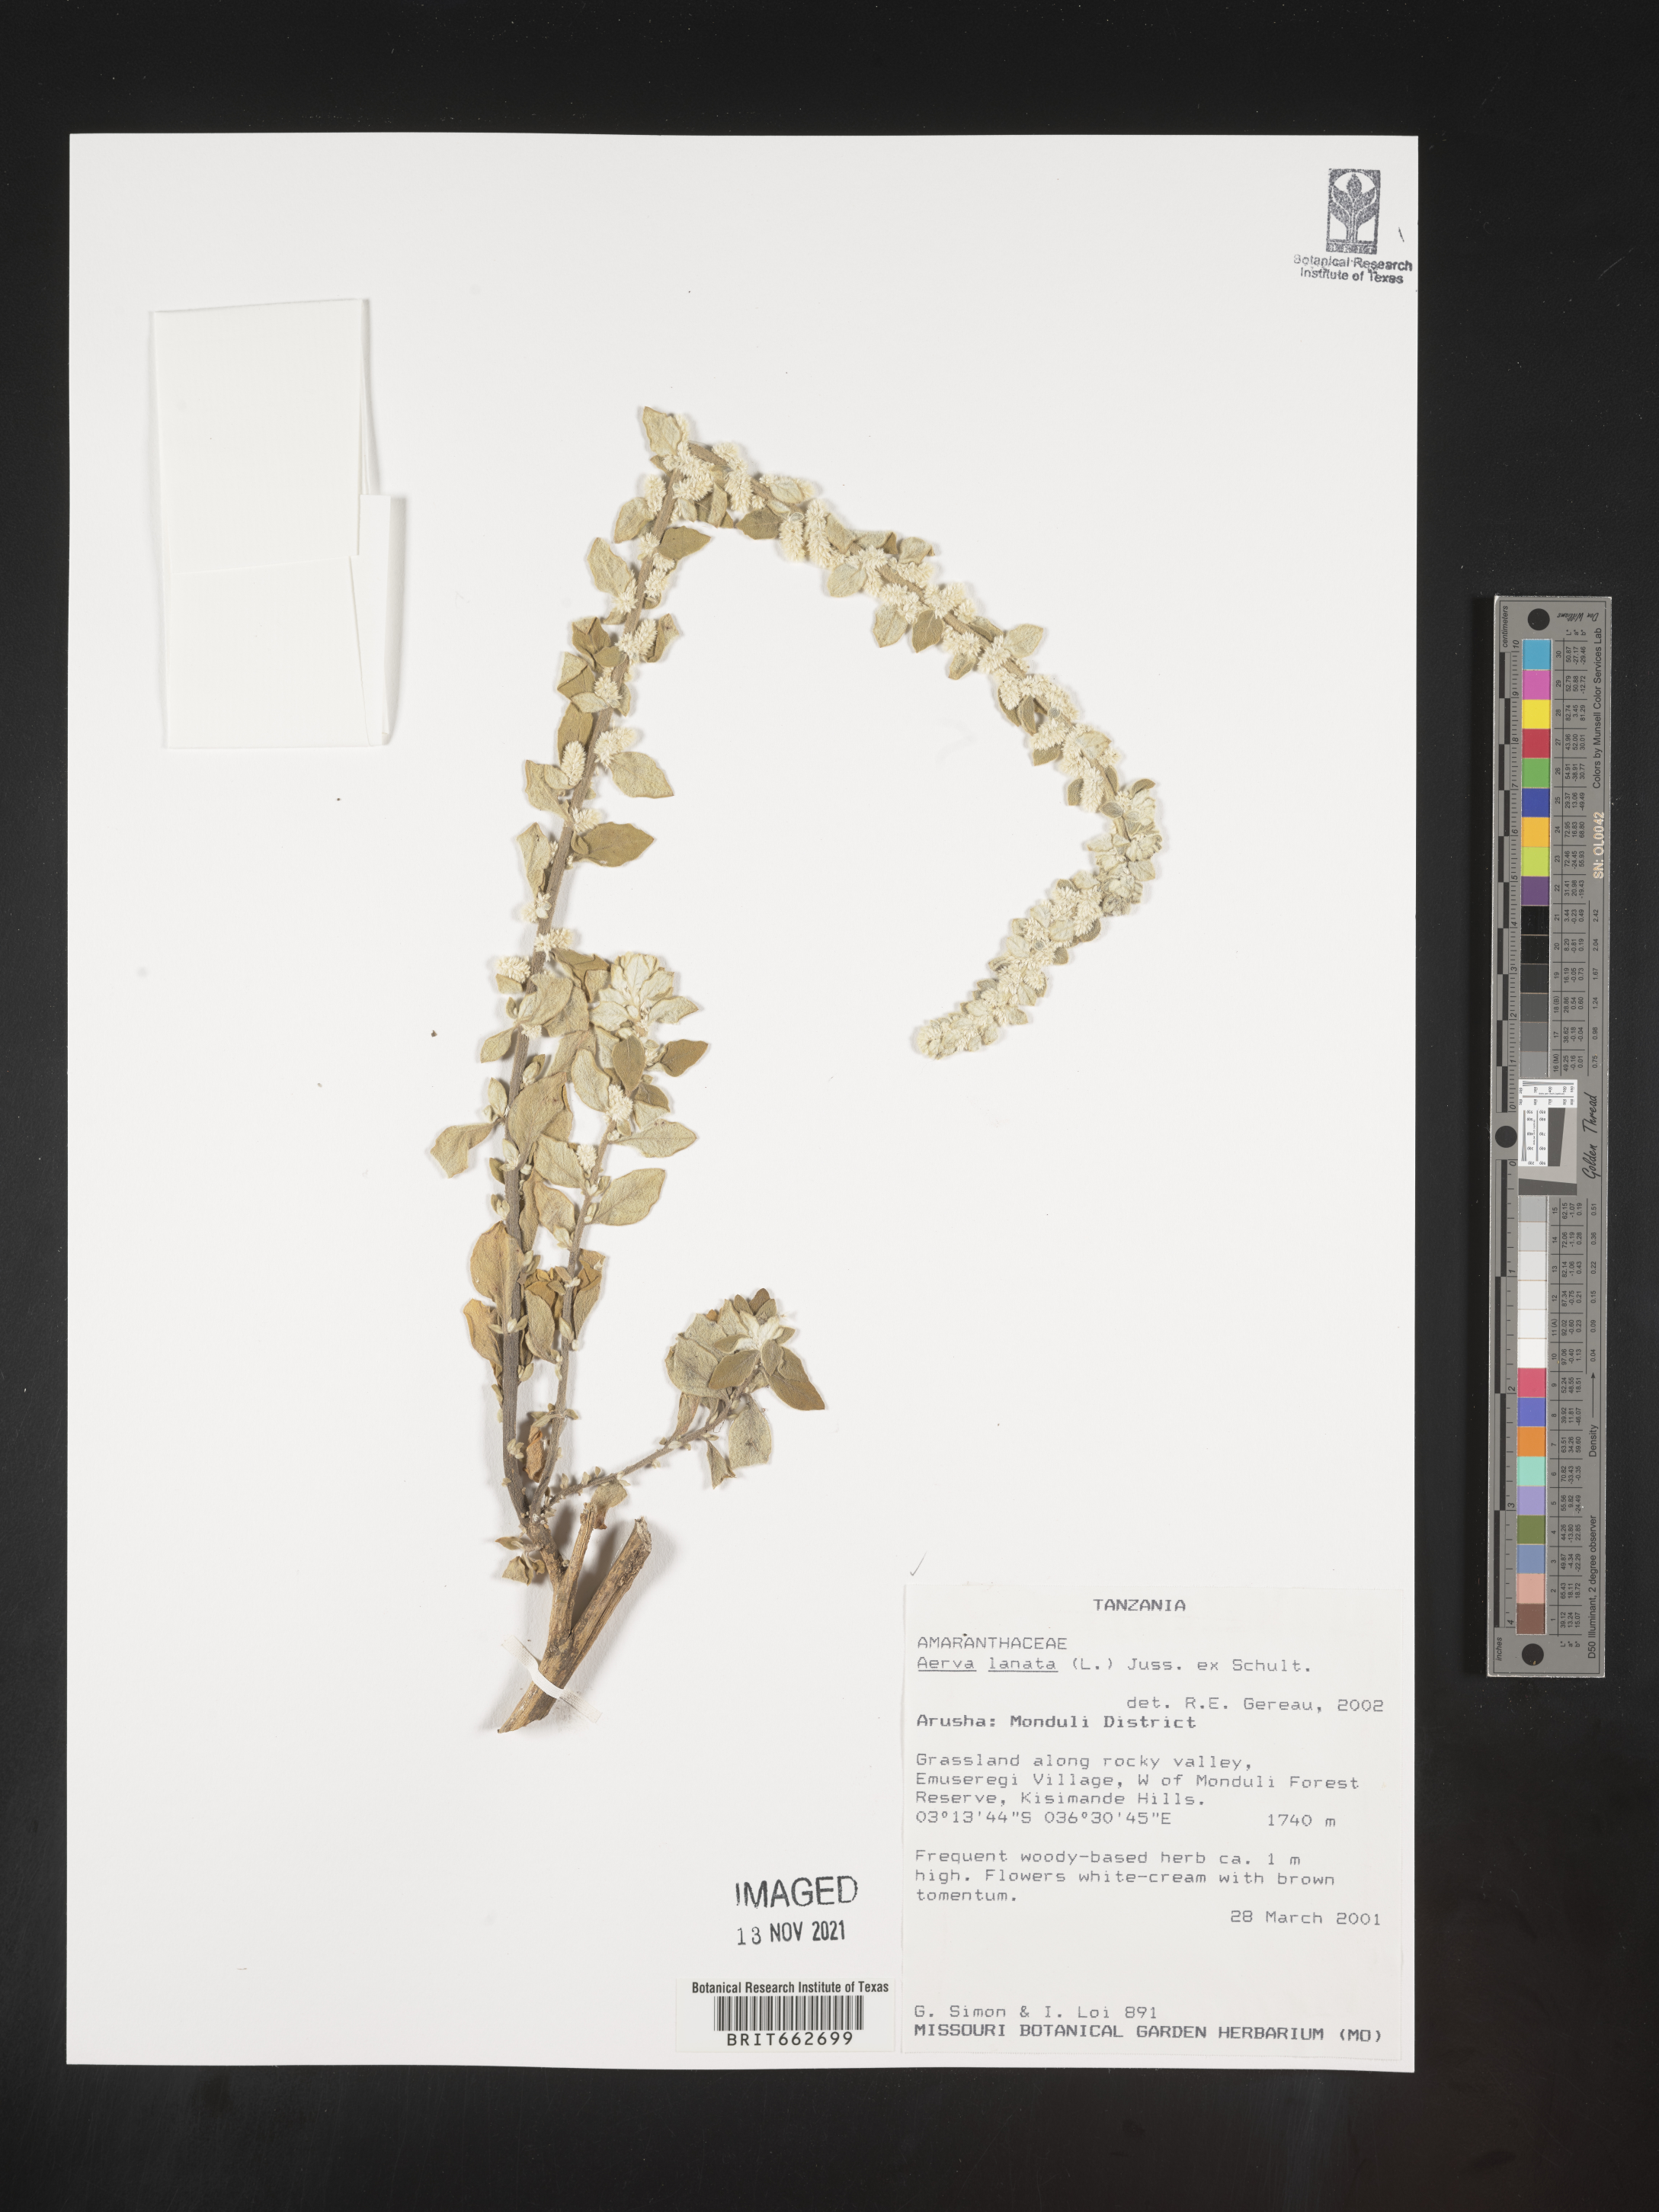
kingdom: Plantae
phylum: Tracheophyta
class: Magnoliopsida
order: Caryophyllales
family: Amaranthaceae
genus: Aerva
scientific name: Aerva
